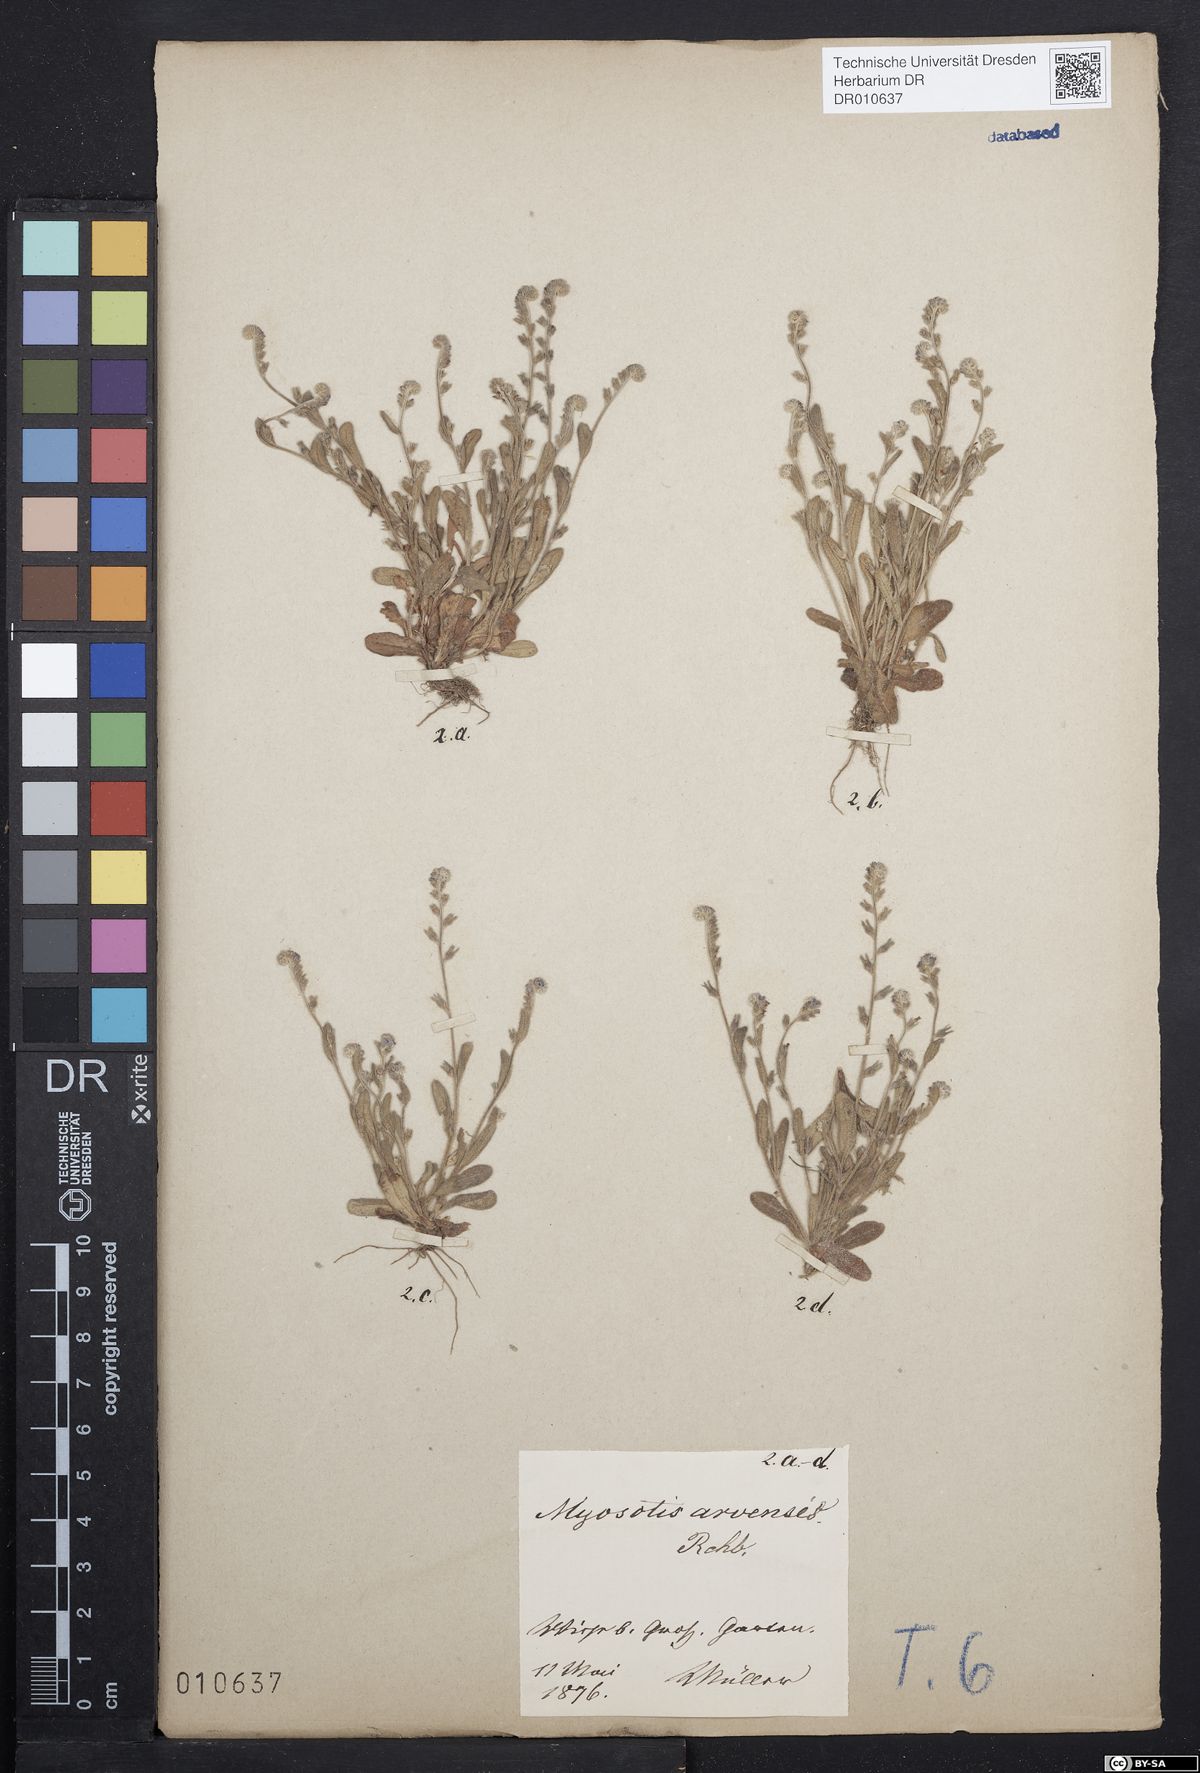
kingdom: Plantae
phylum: Tracheophyta
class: Magnoliopsida
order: Boraginales
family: Boraginaceae
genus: Myosotis
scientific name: Myosotis stricta
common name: Strict forget-me-not
